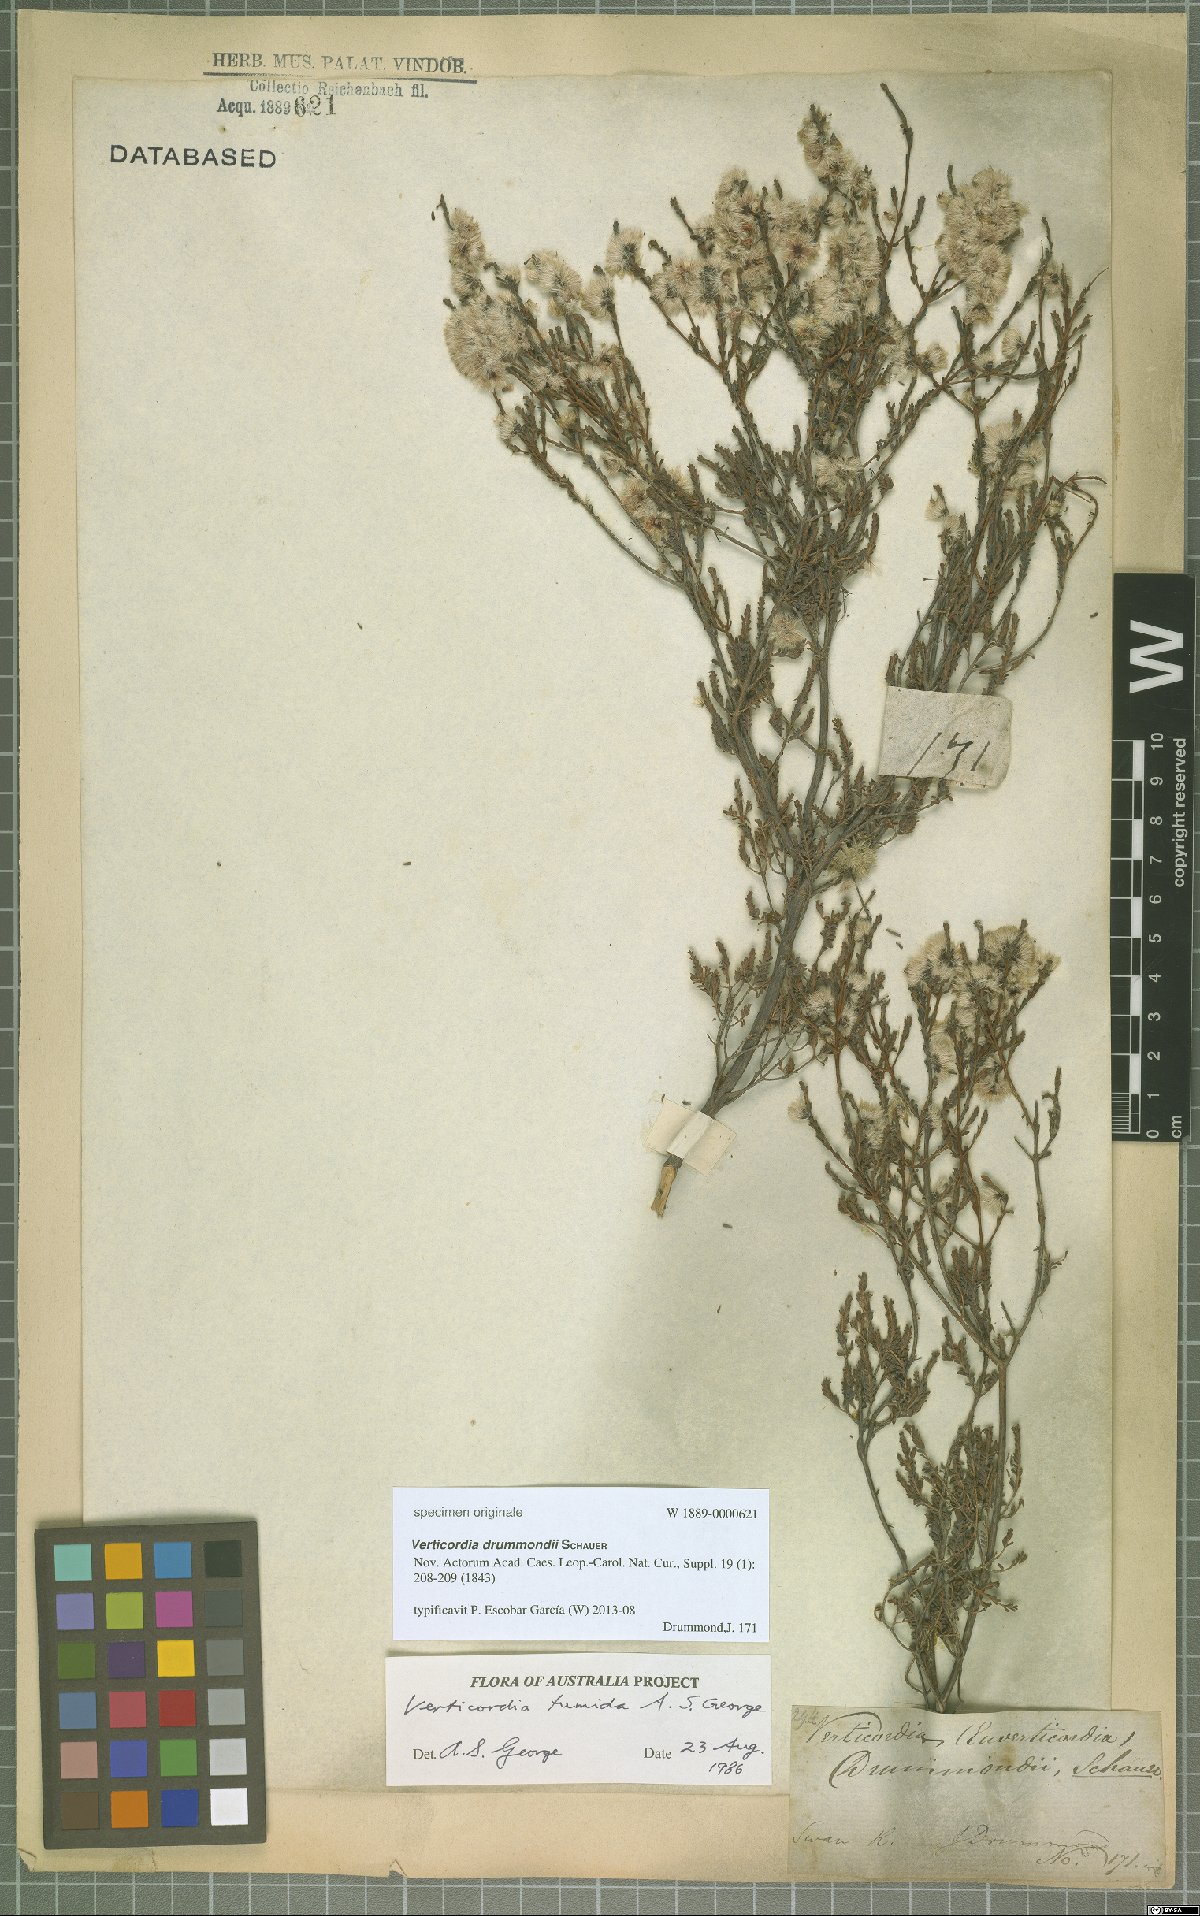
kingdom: Plantae
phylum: Tracheophyta
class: Magnoliopsida
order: Myrtales
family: Myrtaceae
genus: Verticordia
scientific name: Verticordia tumida
